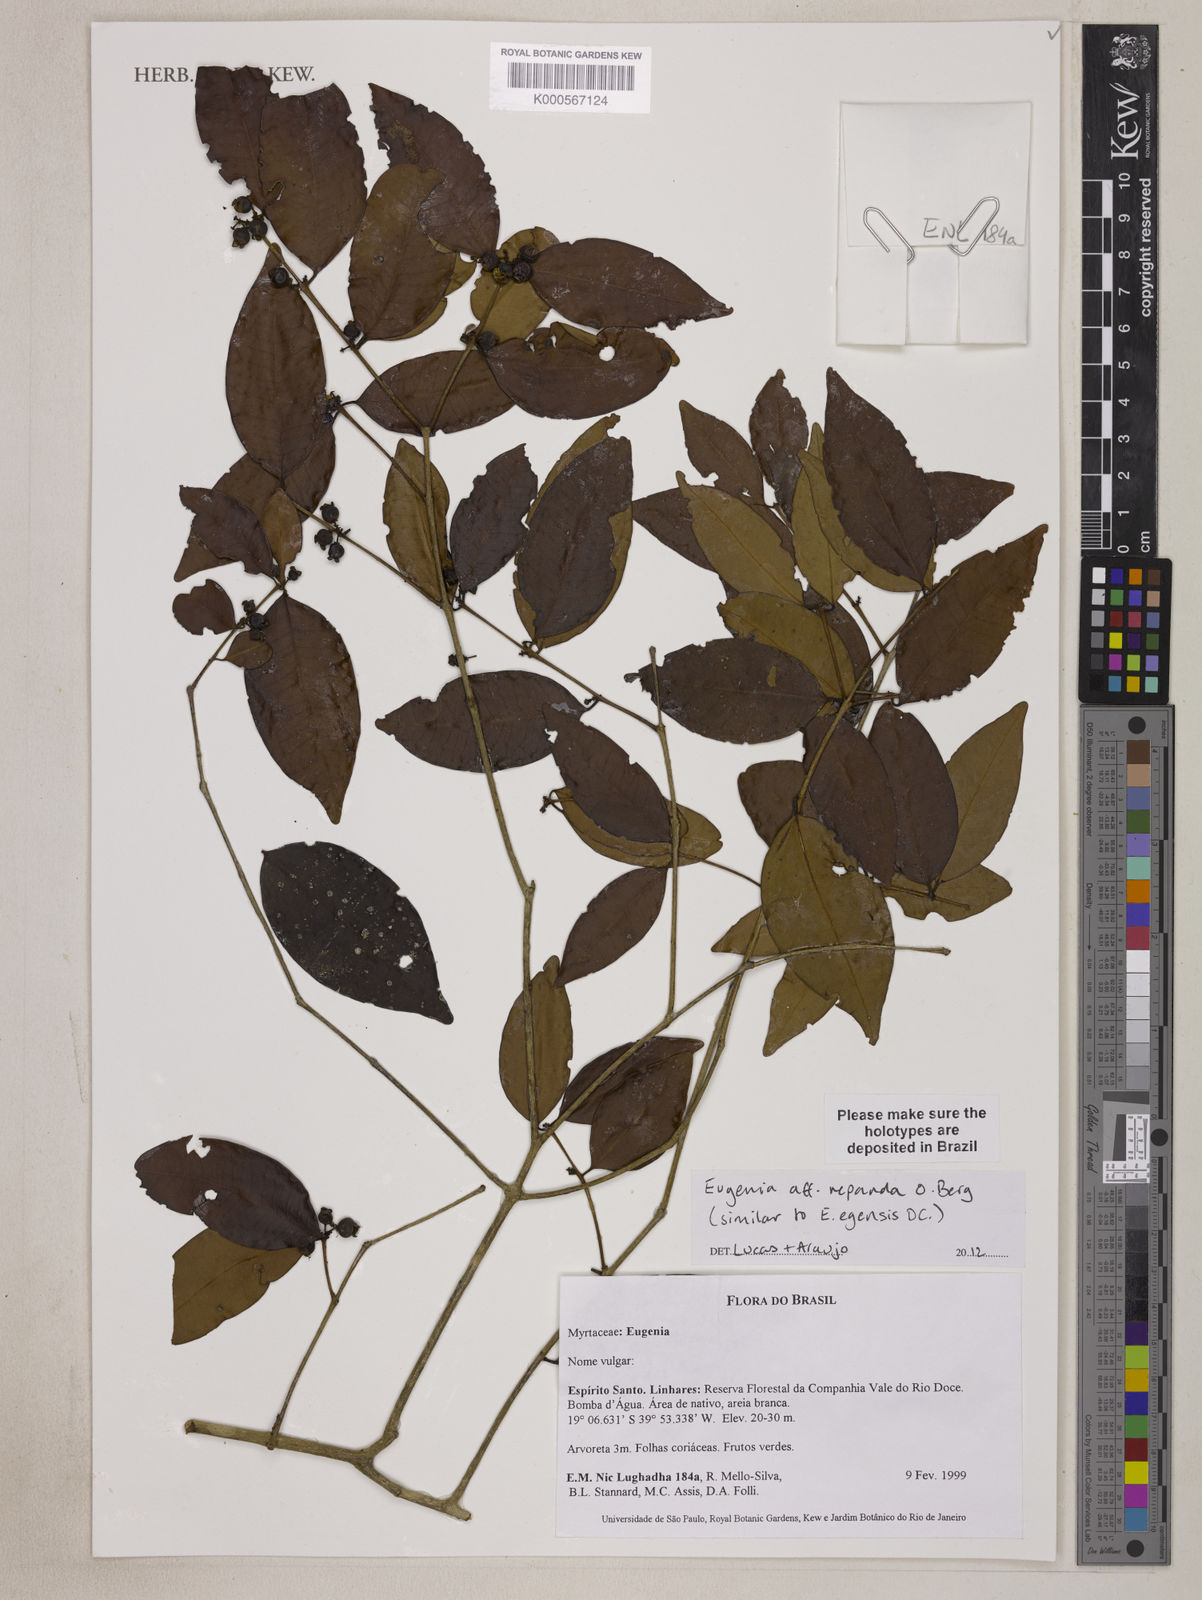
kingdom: Plantae
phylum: Tracheophyta
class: Magnoliopsida
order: Myrtales
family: Myrtaceae
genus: Eugenia
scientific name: Eugenia repanda
